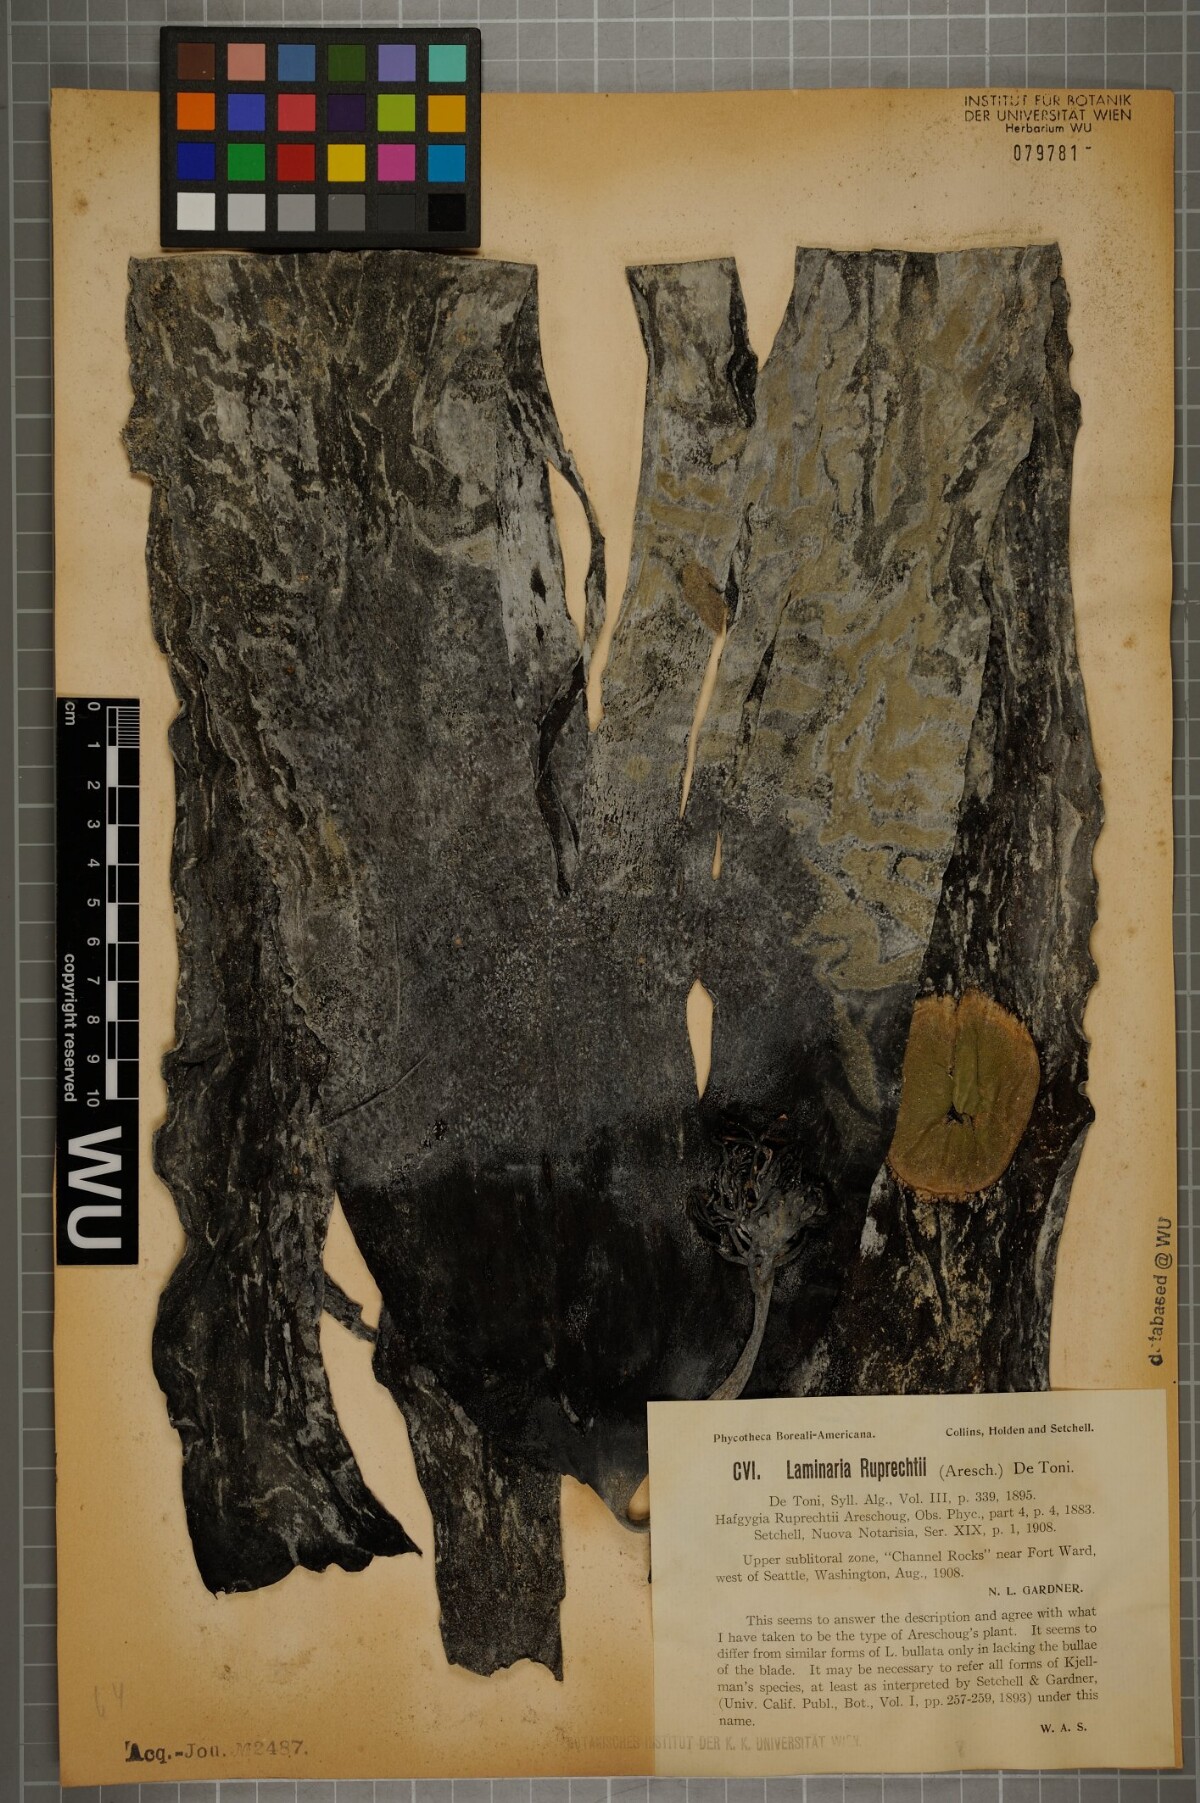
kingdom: Chromista
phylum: Ochrophyta
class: Phaeophyceae
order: Laminariales
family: Laminariaceae
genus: Laminaria
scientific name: Laminaria
